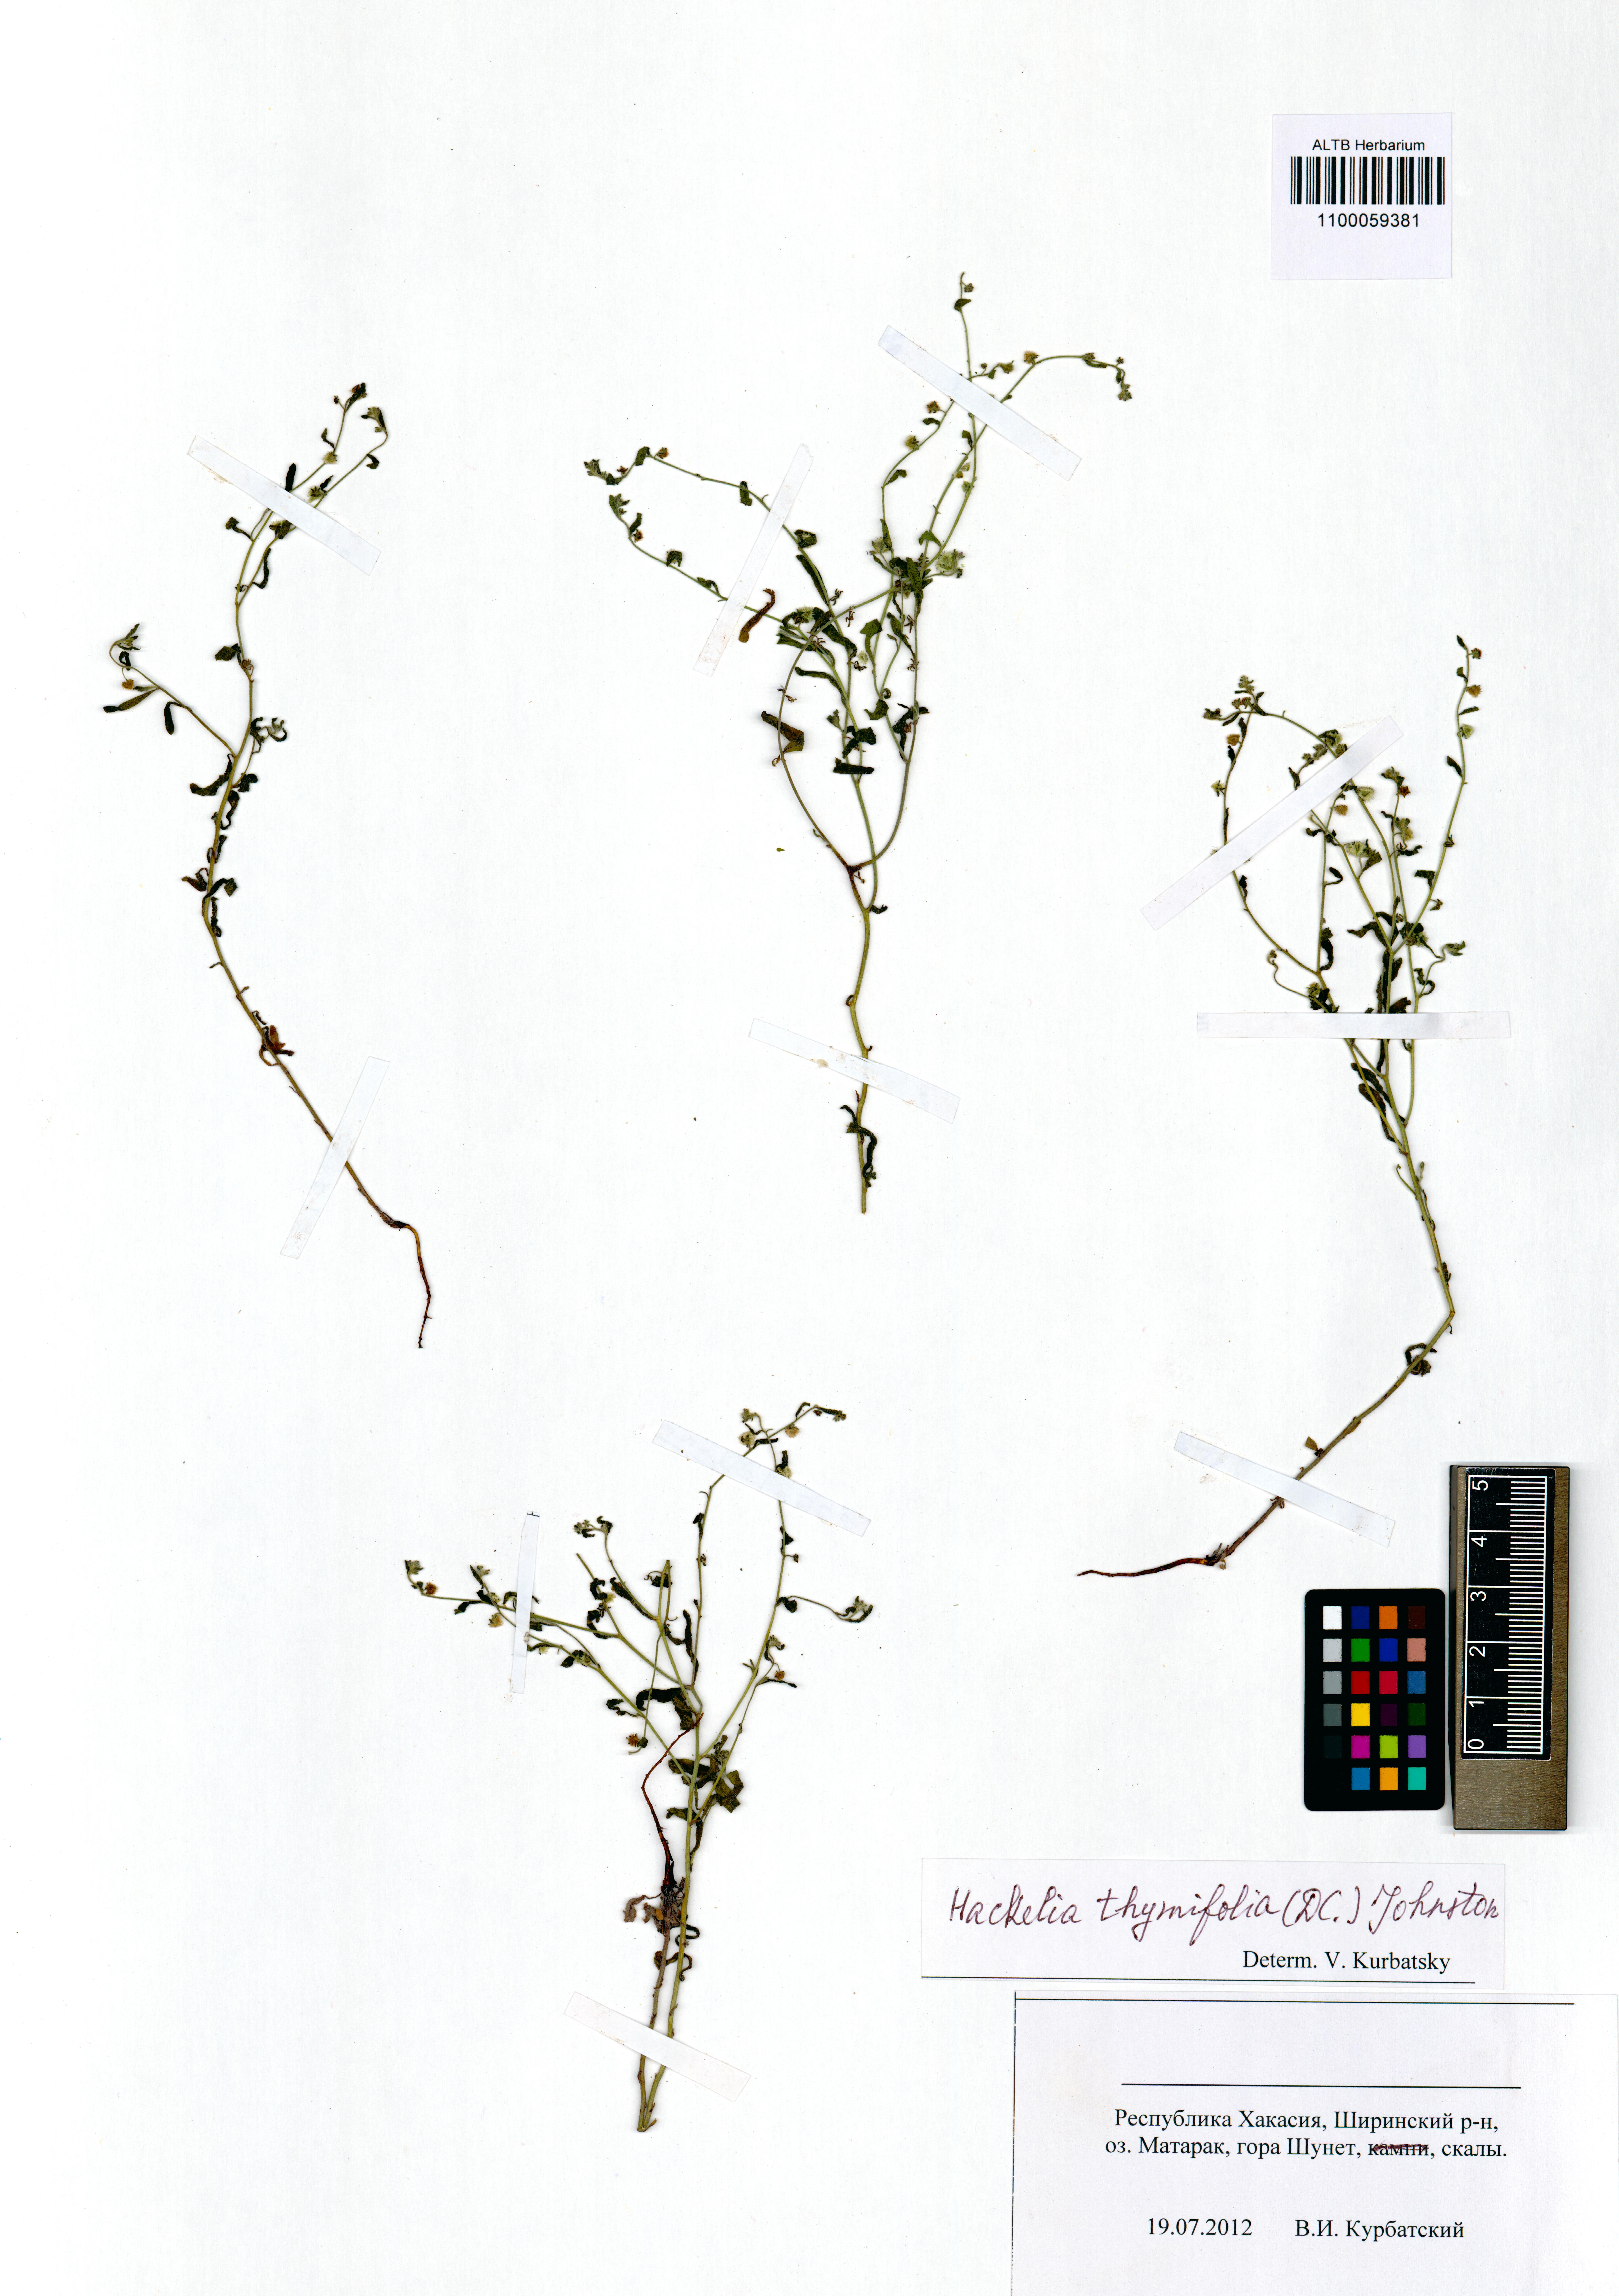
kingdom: Plantae
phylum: Tracheophyta
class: Magnoliopsida
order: Boraginales
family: Boraginaceae
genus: Eritrichium
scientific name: Eritrichium thymifolium
